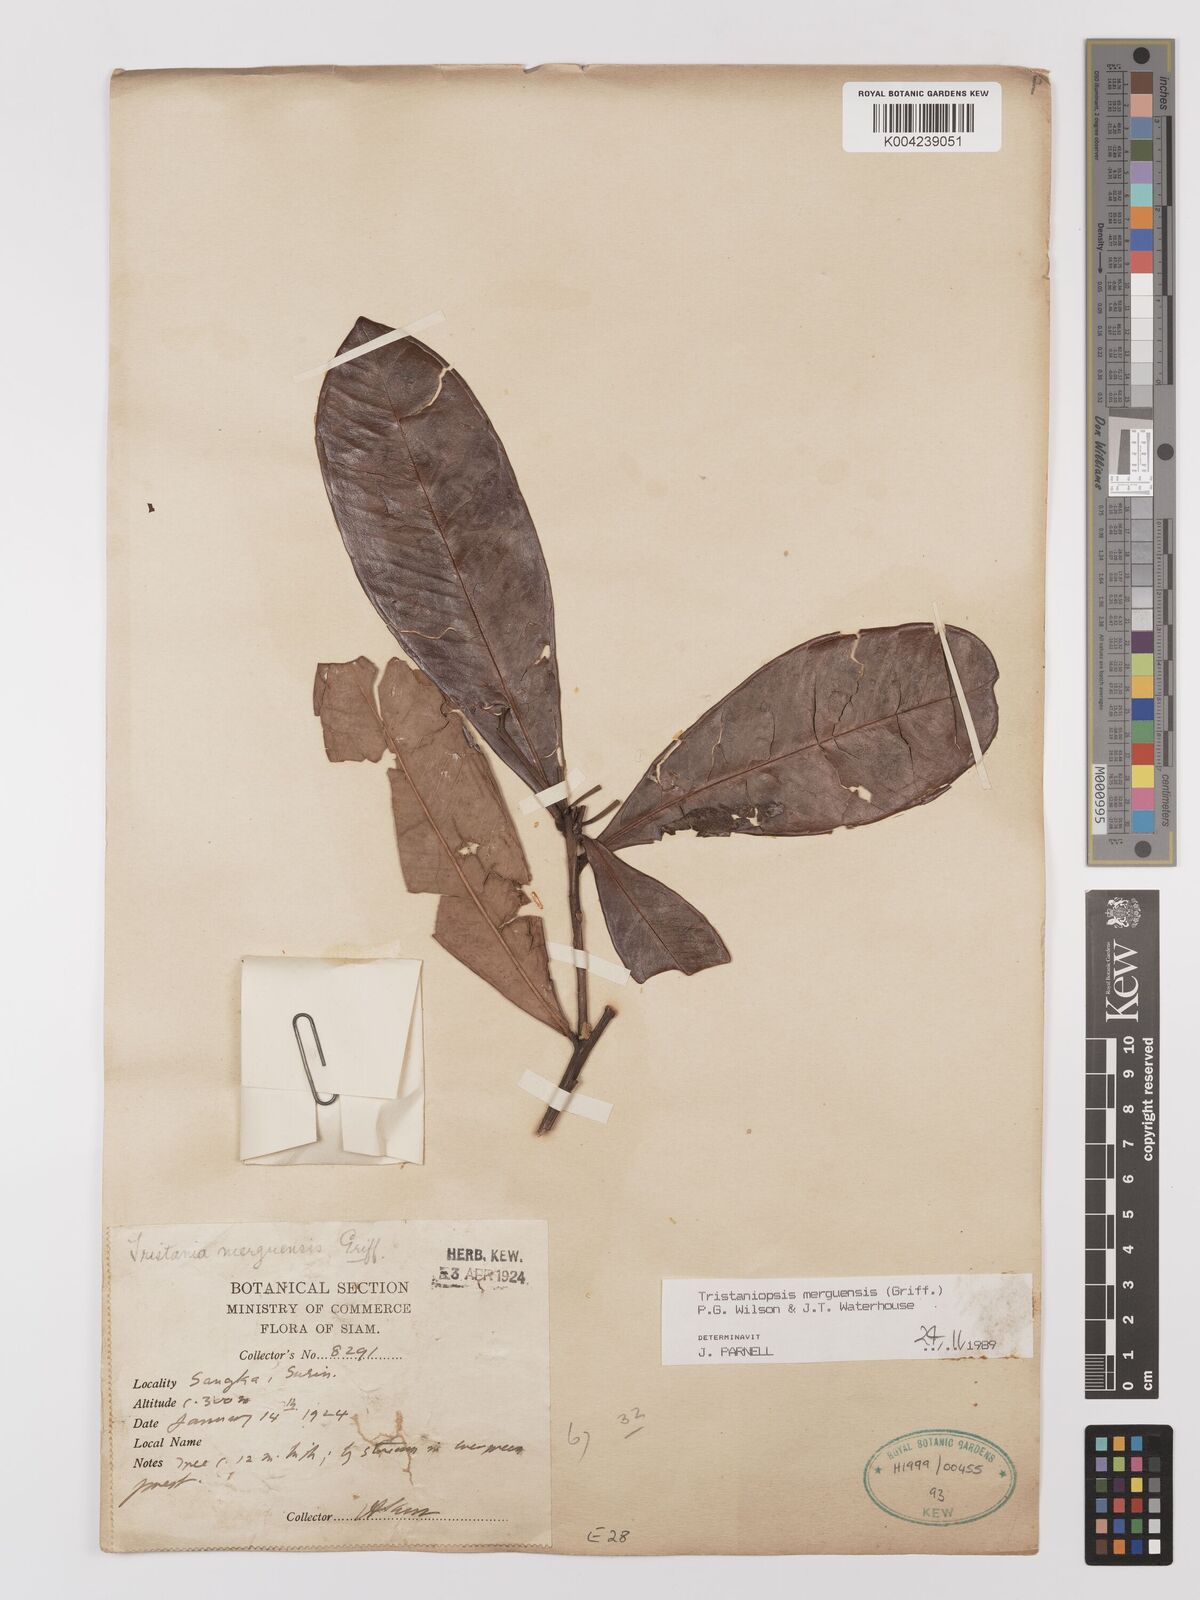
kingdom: Plantae
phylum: Tracheophyta
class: Magnoliopsida
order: Myrtales
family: Myrtaceae
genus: Tristaniopsis
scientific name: Tristaniopsis merguensis
